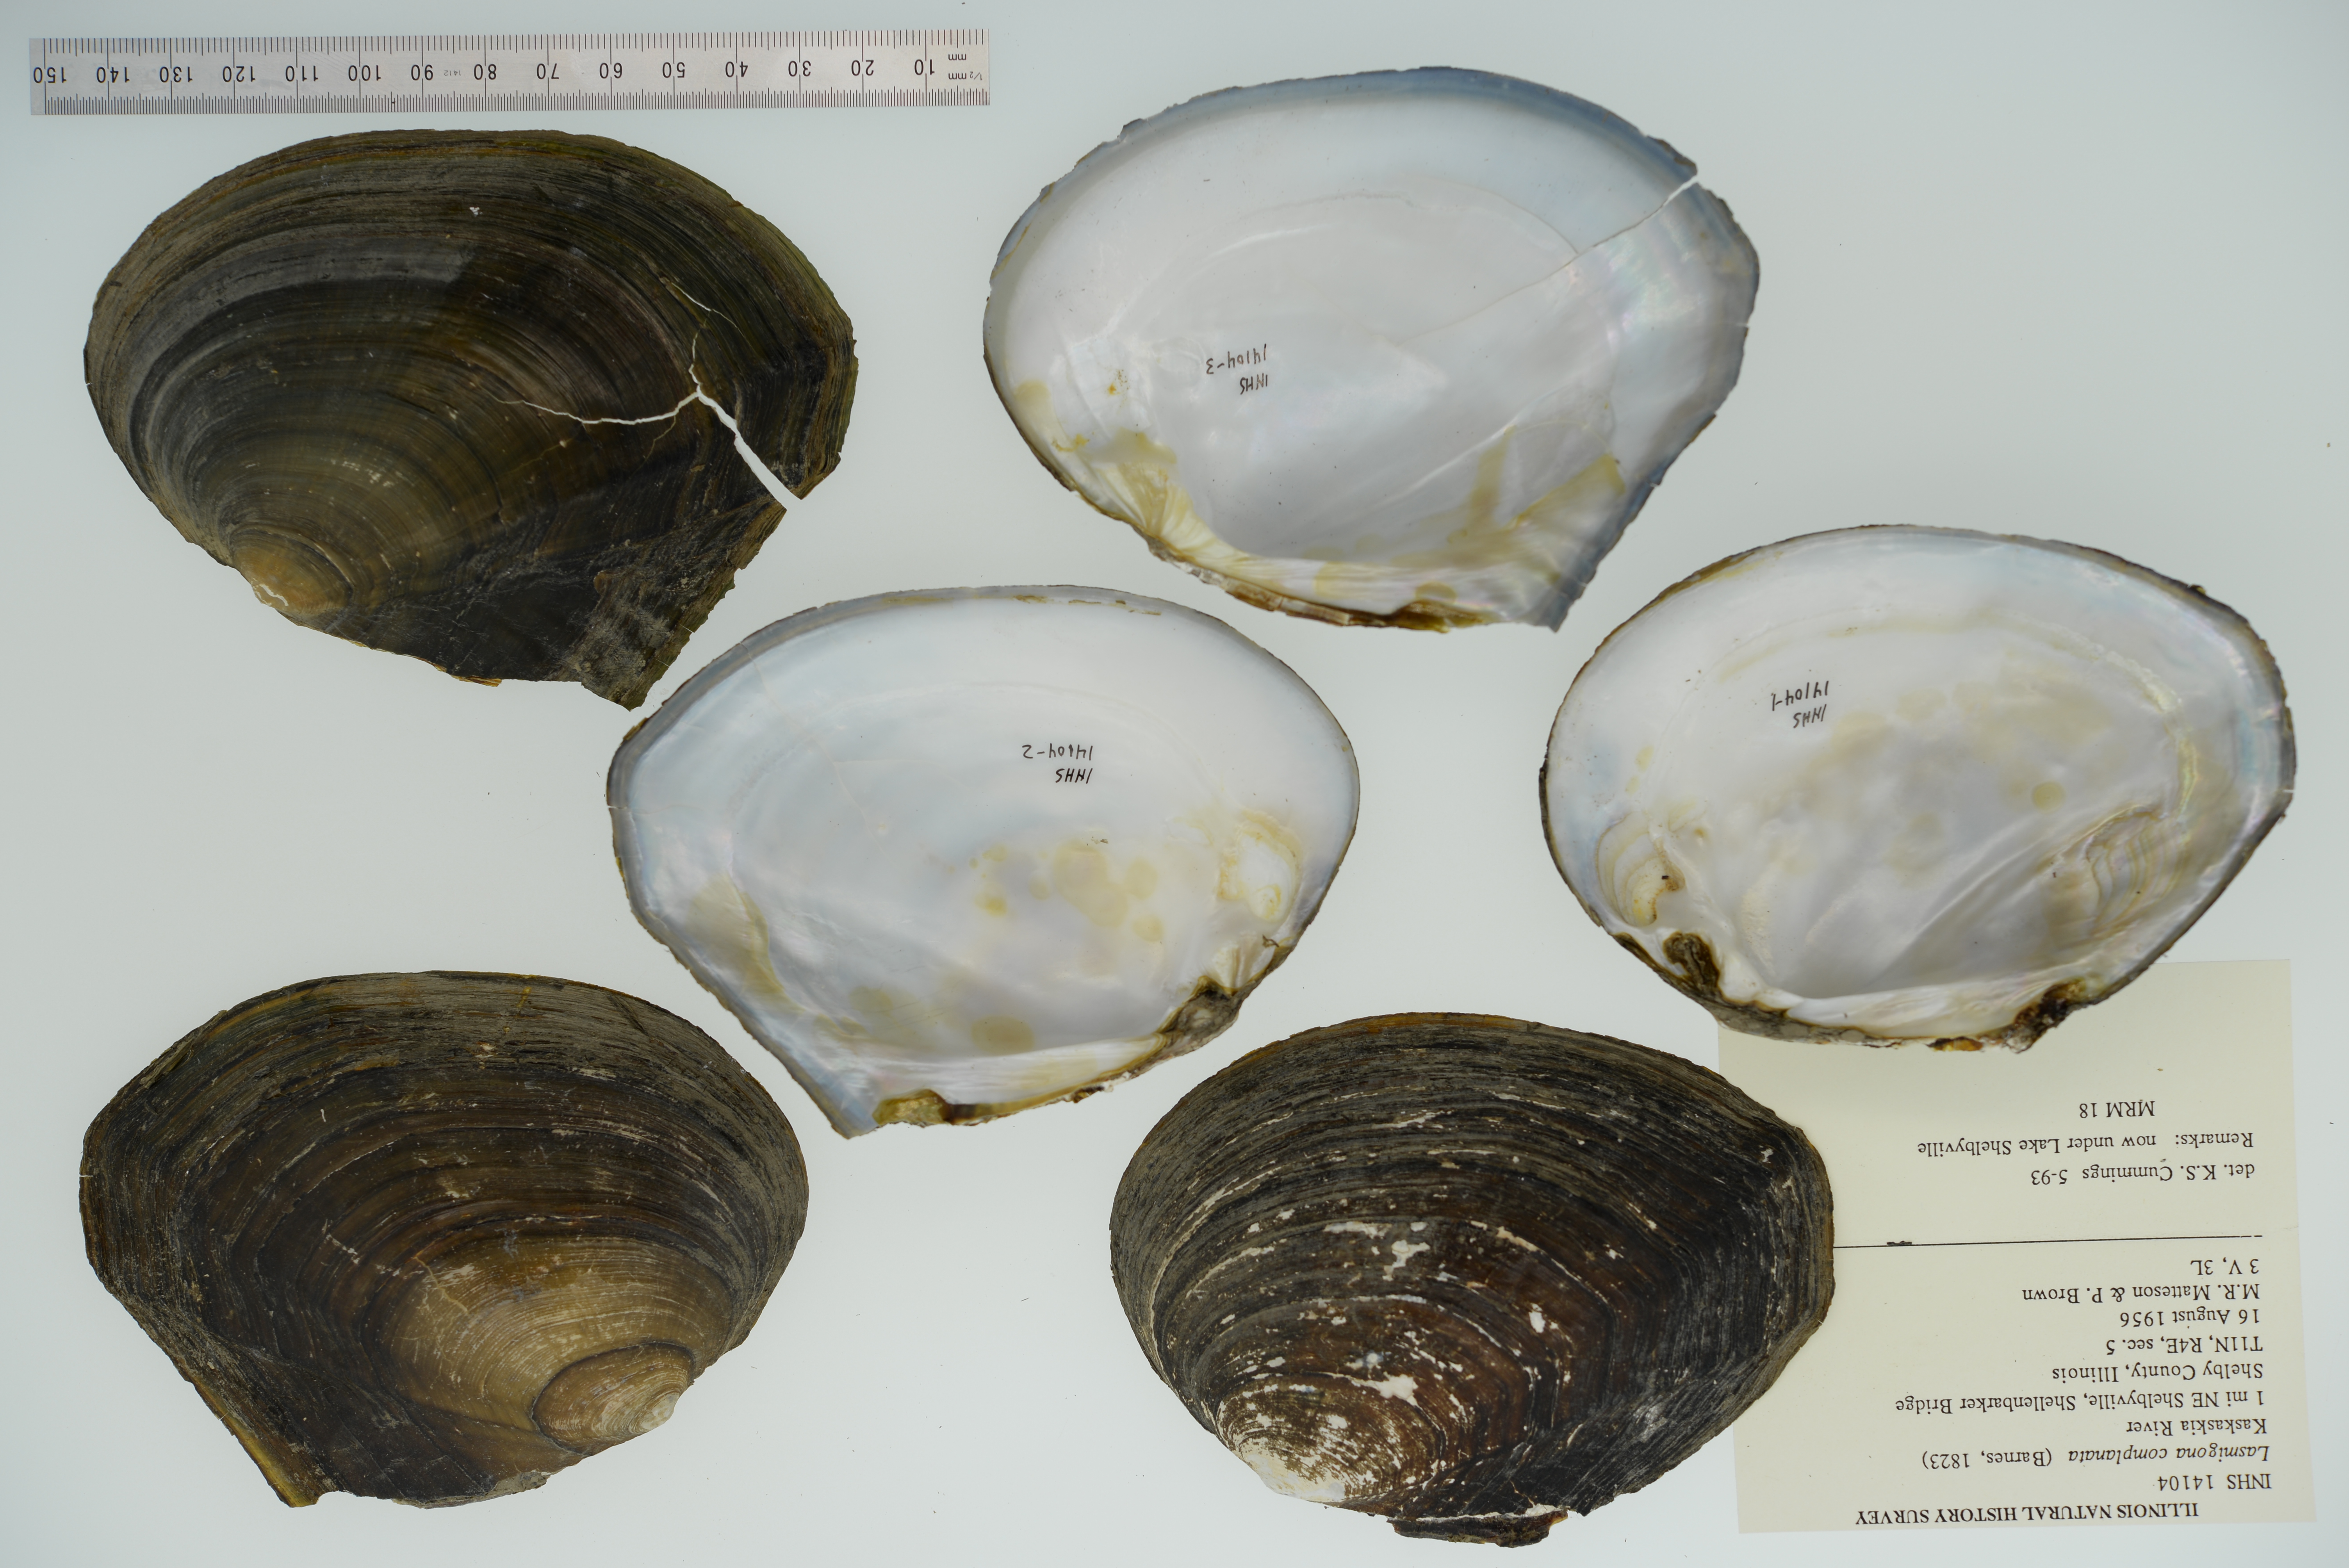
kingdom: Animalia
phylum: Mollusca
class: Bivalvia
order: Unionida
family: Unionidae
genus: Lasmigona
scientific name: Lasmigona complanata
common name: White heelsplitter
